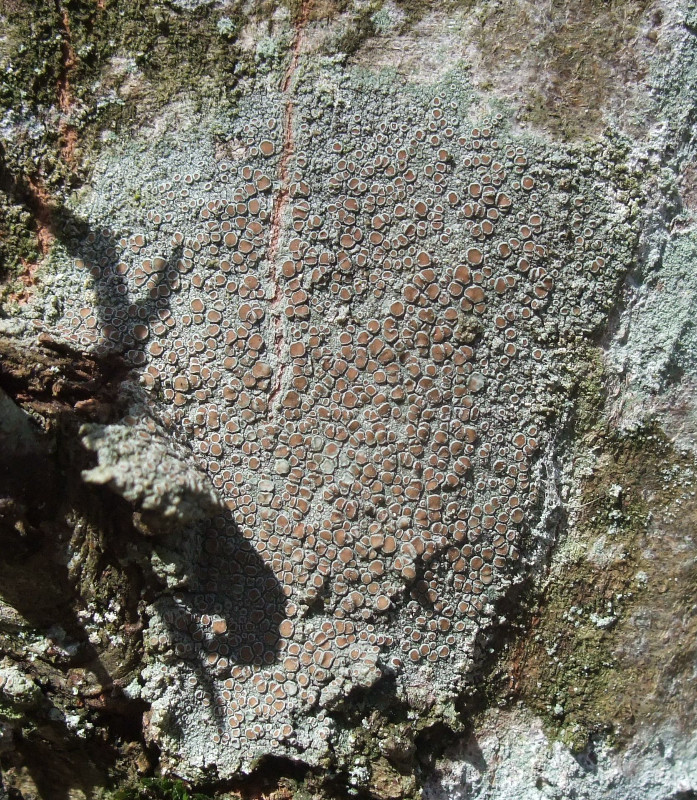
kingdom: Fungi
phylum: Ascomycota
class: Lecanoromycetes
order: Lecanorales
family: Lecanoraceae
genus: Lecanora
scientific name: Lecanora chlarotera
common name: brun kantskivelav
